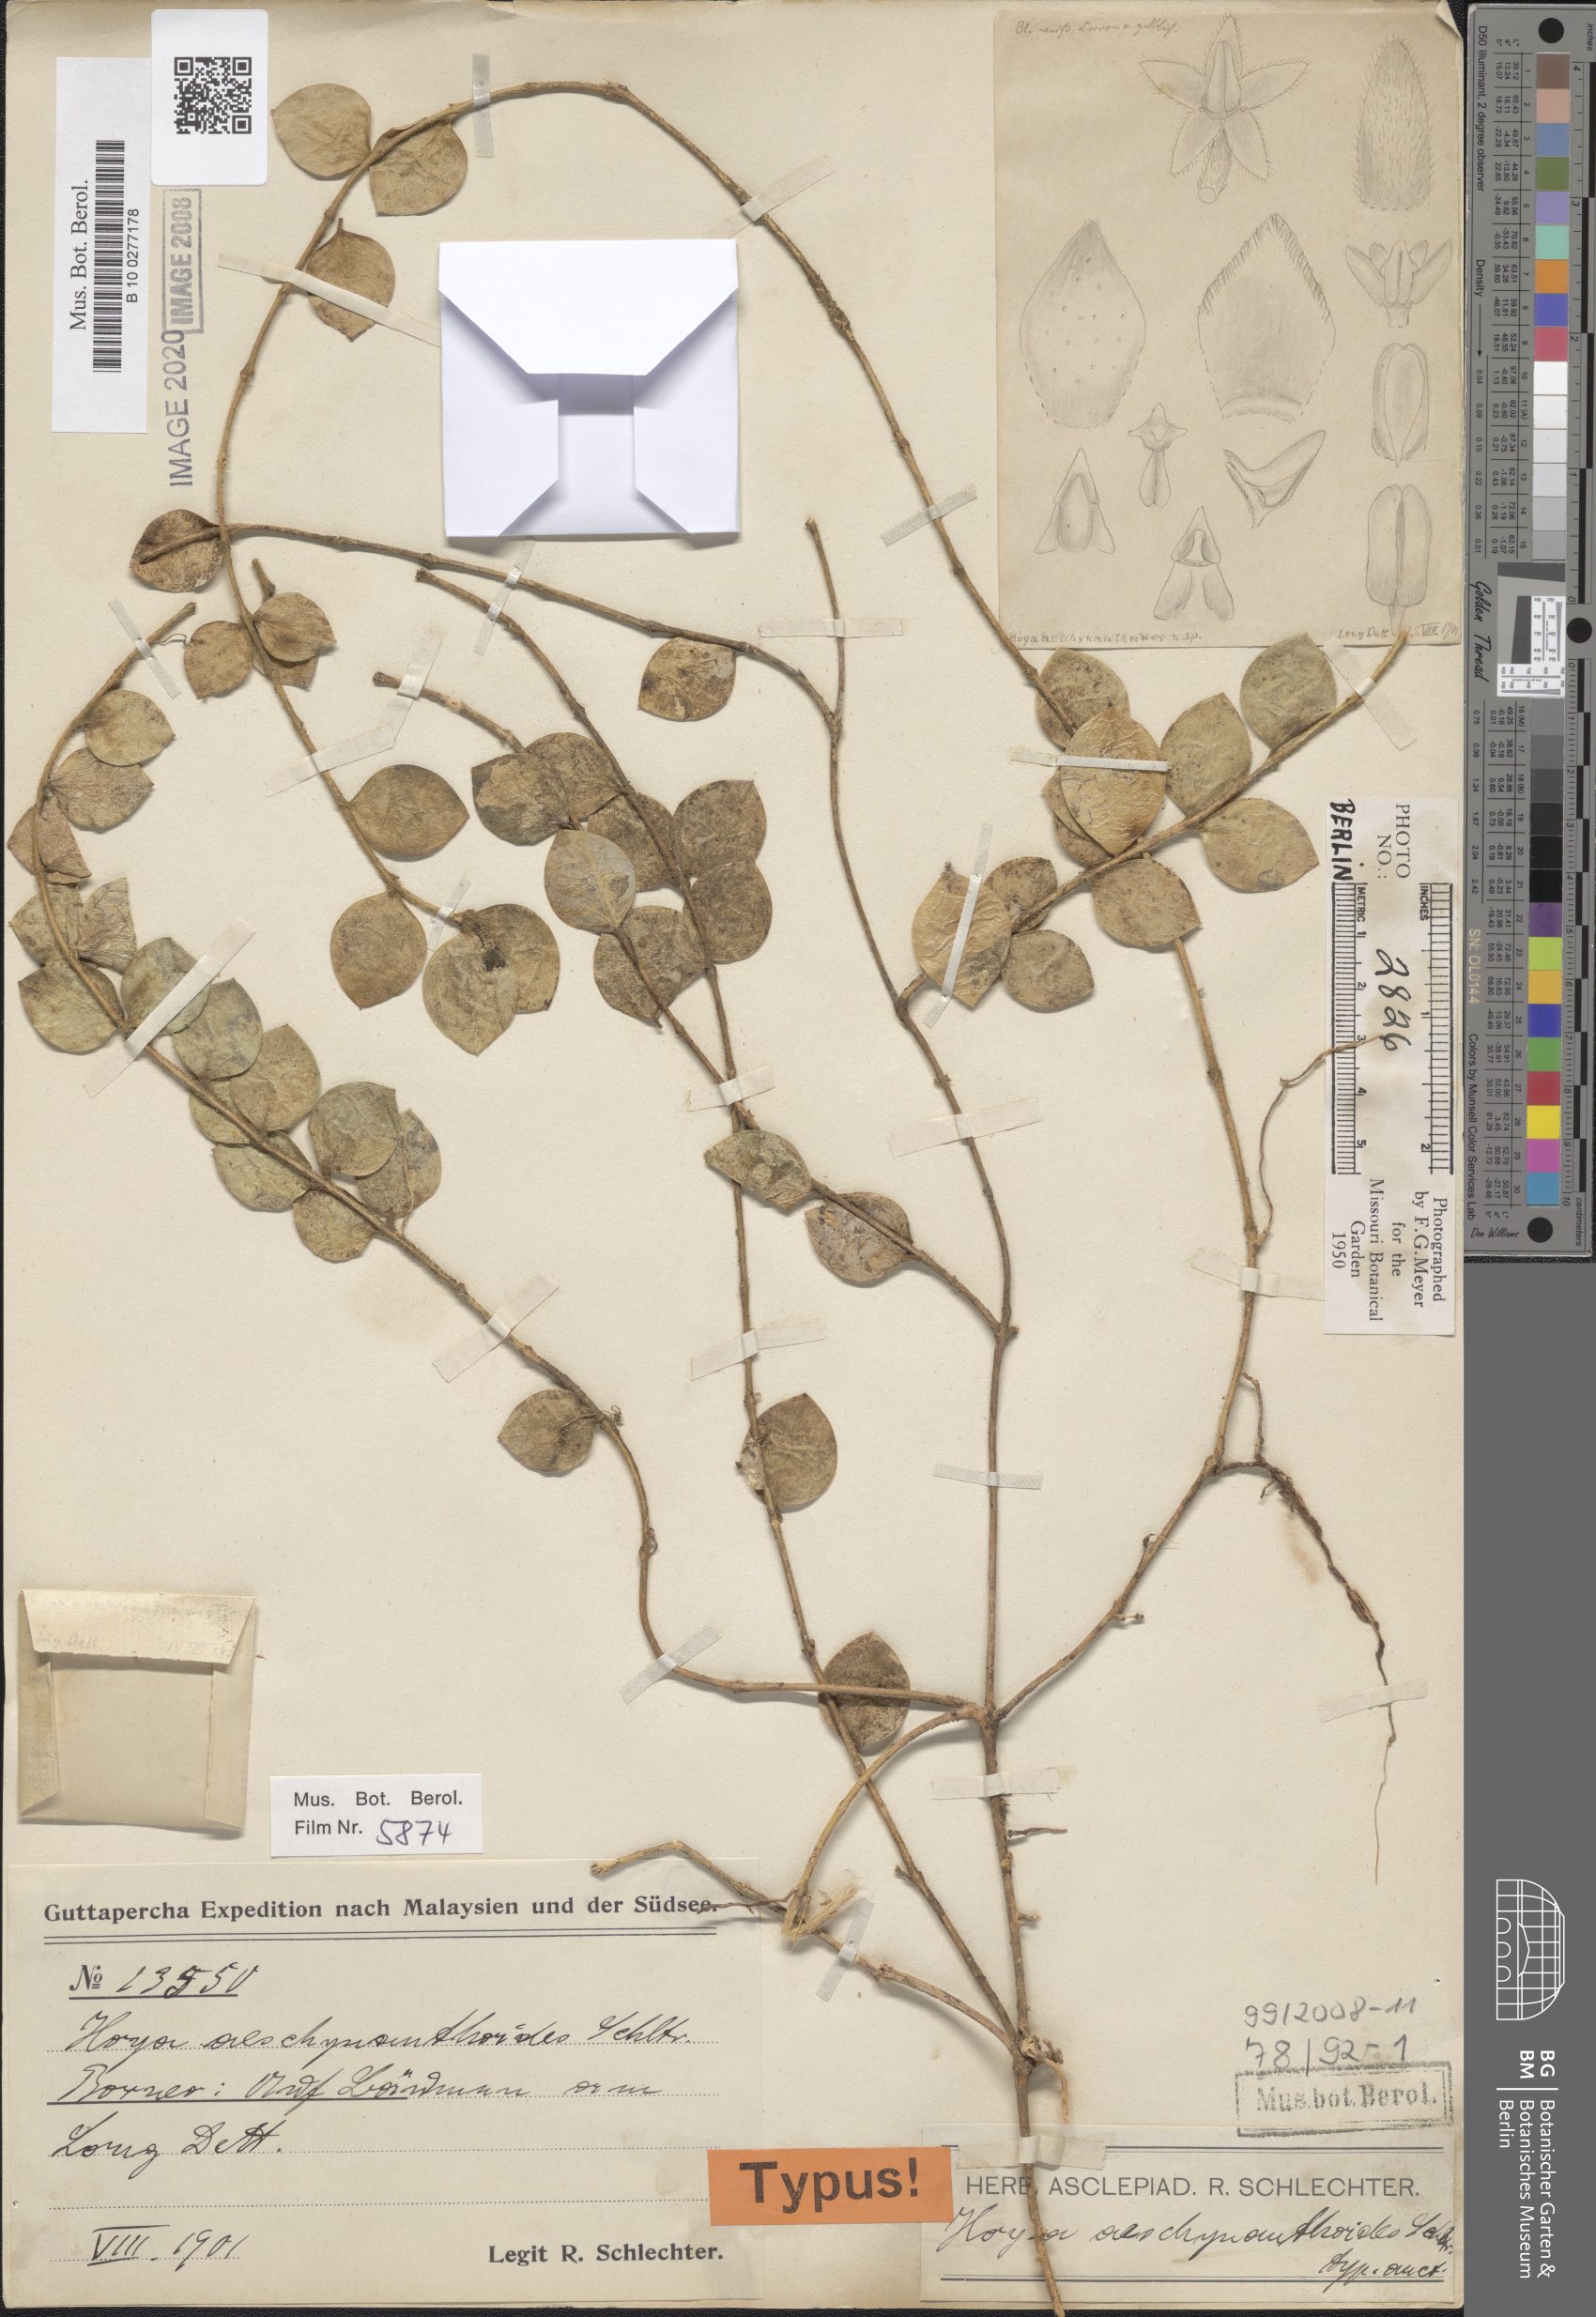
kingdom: Plantae
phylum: Tracheophyta
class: Magnoliopsida
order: Gentianales
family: Apocynaceae
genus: Hoya
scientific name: Hoya aeschynanthoides
